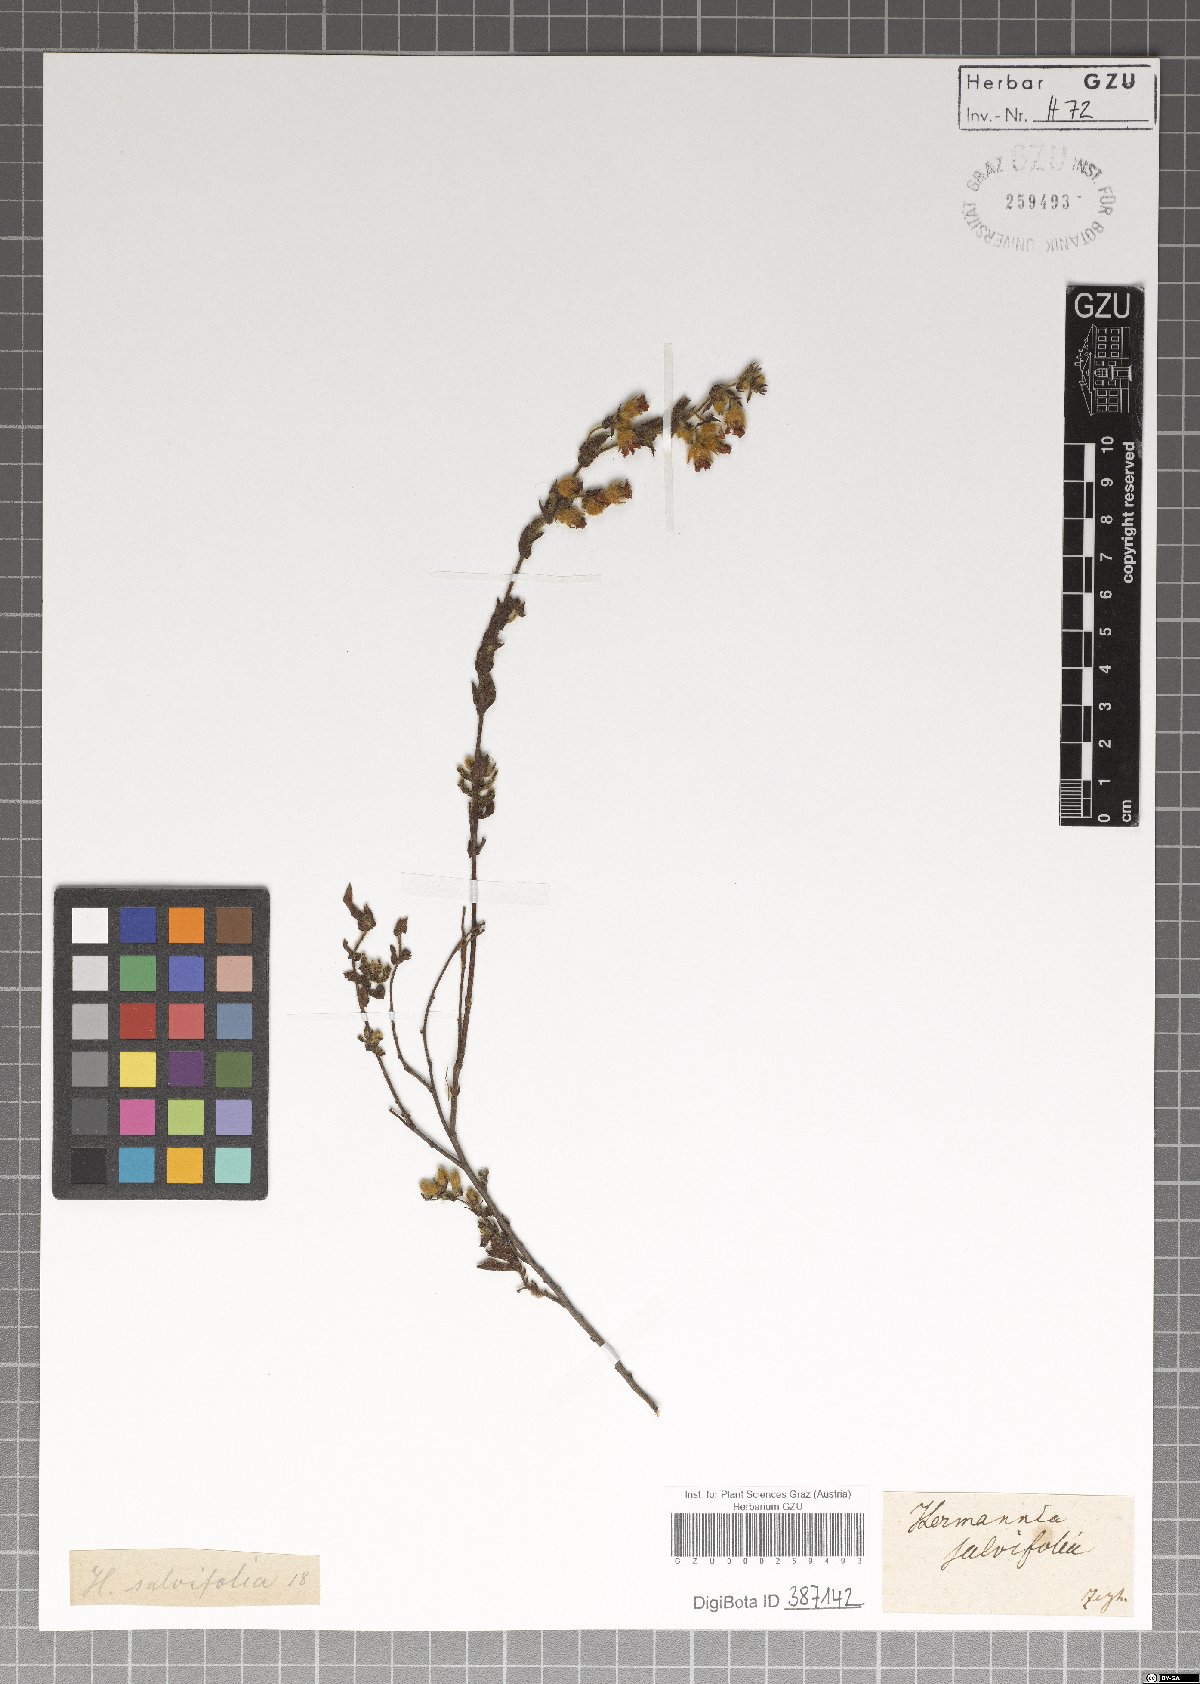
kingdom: Plantae
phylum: Tracheophyta
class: Magnoliopsida
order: Malvales
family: Malvaceae
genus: Hermannia
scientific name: Hermannia hyssopifolia
